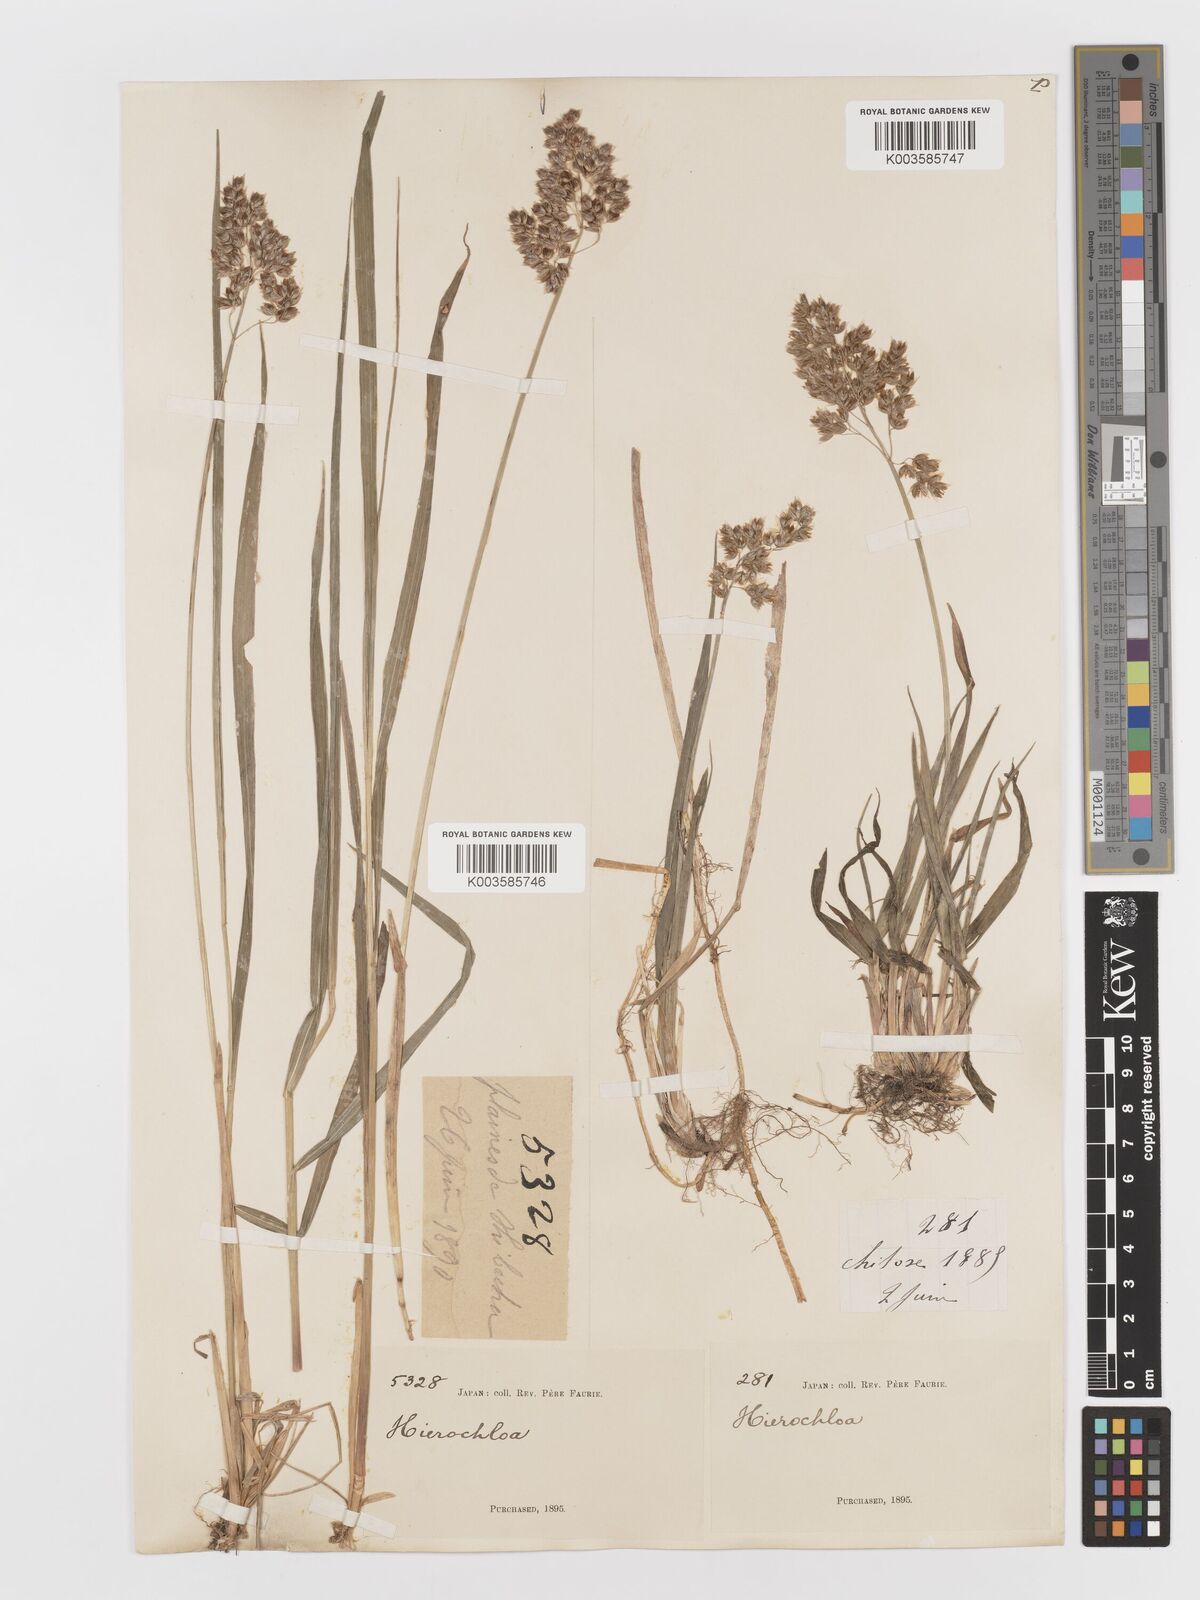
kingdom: Plantae
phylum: Tracheophyta
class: Liliopsida
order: Poales
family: Poaceae
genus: Anthoxanthum
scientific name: Anthoxanthum nitens
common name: Holy grass
